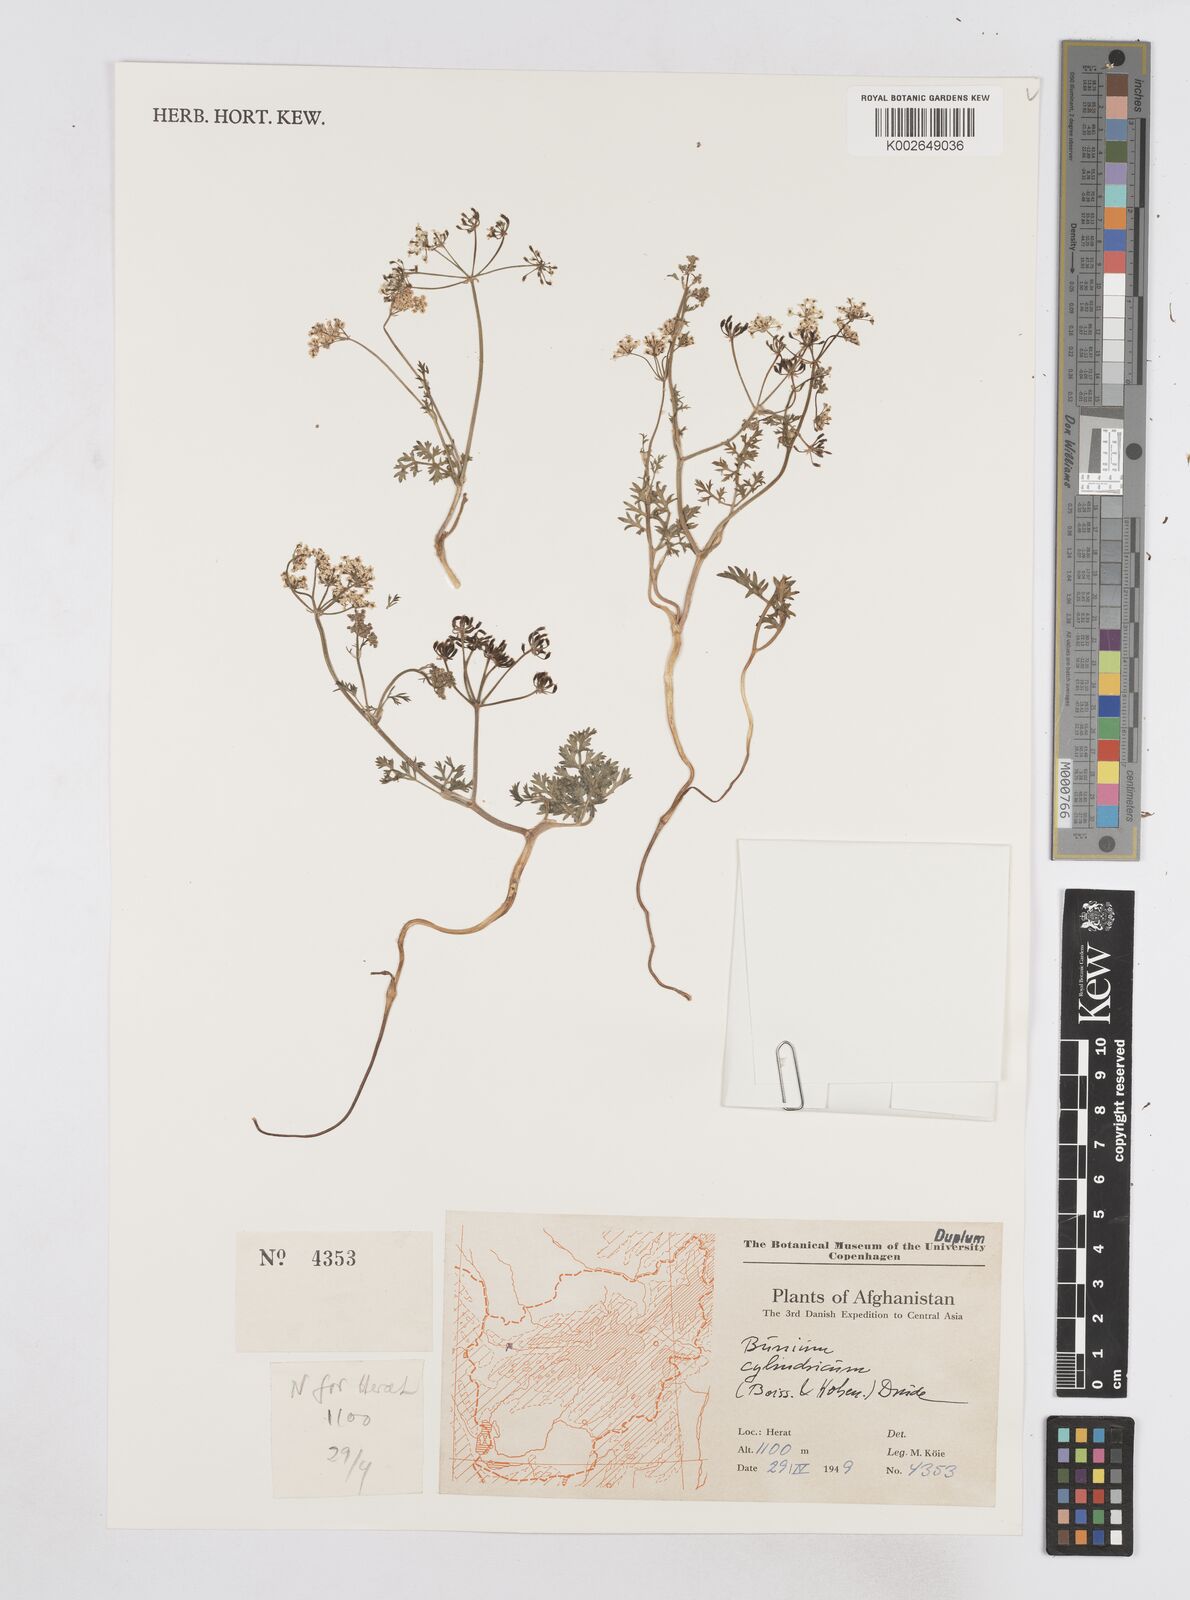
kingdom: Plantae
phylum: Tracheophyta
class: Magnoliopsida
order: Apiales
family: Apiaceae
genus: Elwendia
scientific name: Elwendia cylindrica
